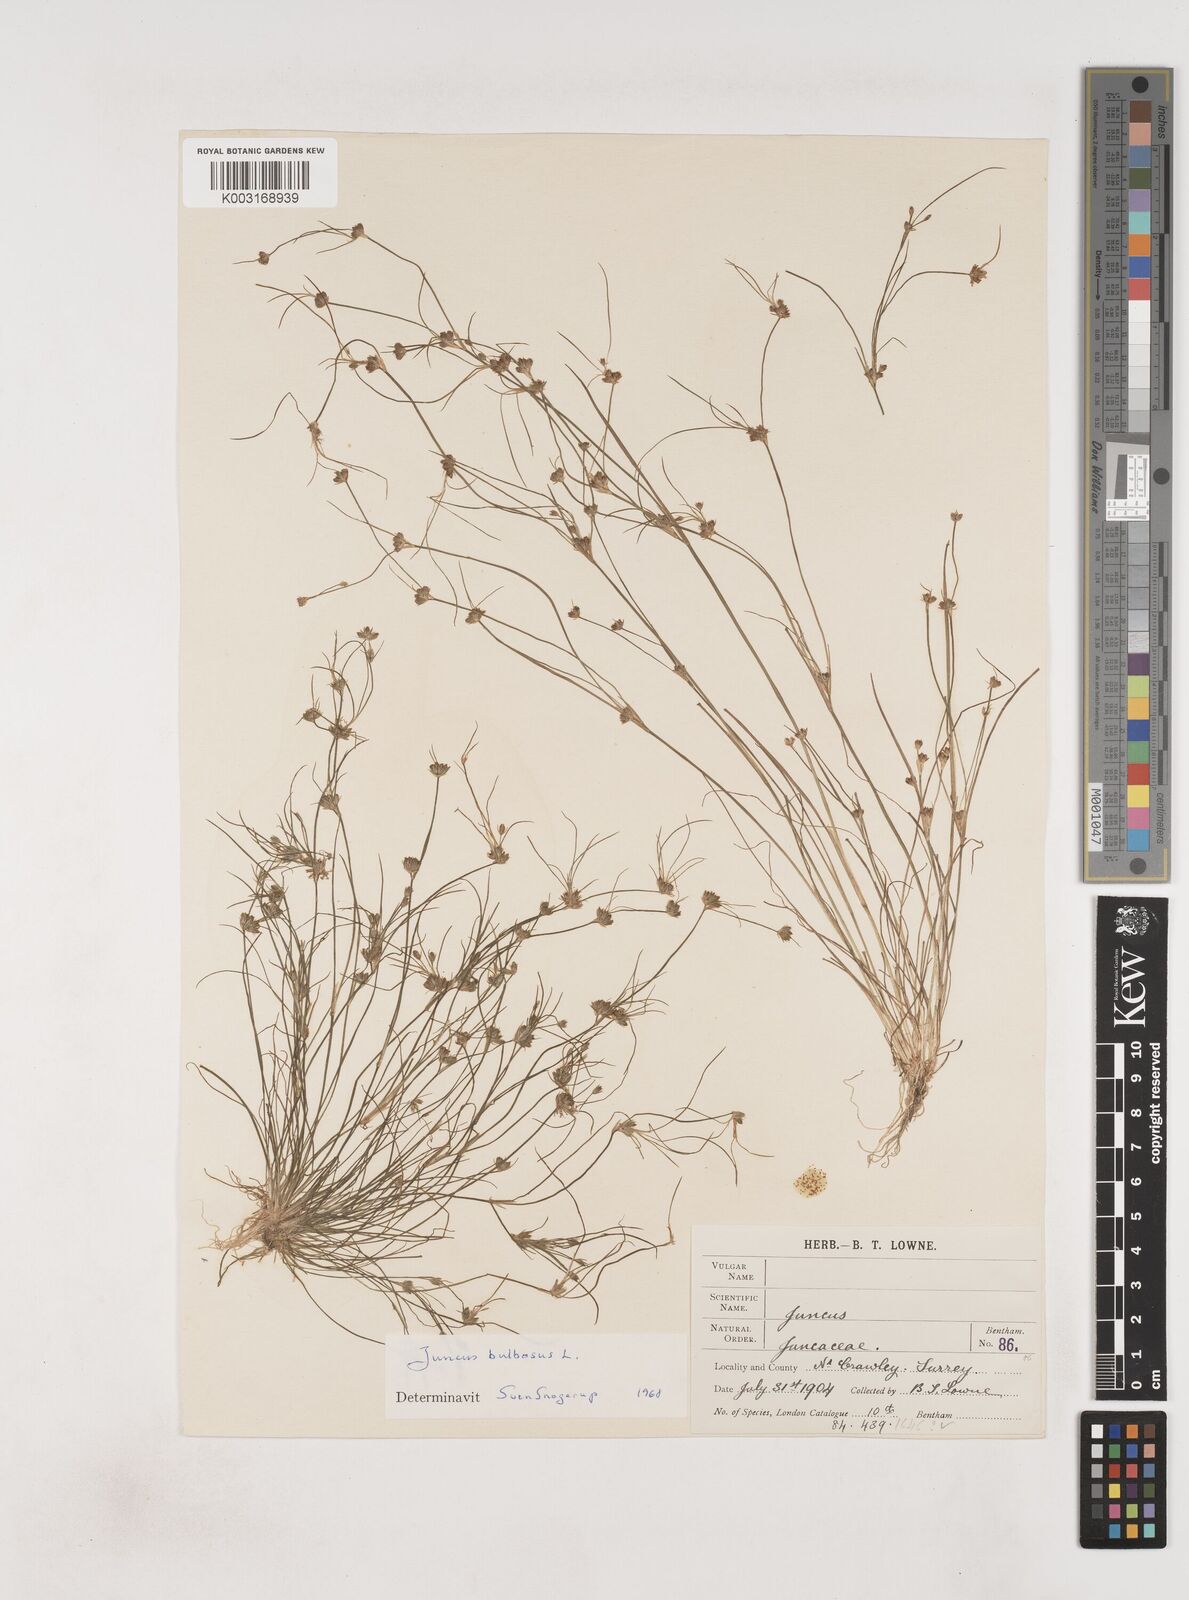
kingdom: Plantae
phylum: Tracheophyta
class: Liliopsida
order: Poales
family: Juncaceae
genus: Juncus
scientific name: Juncus bulbosus
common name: Bulbous rush
